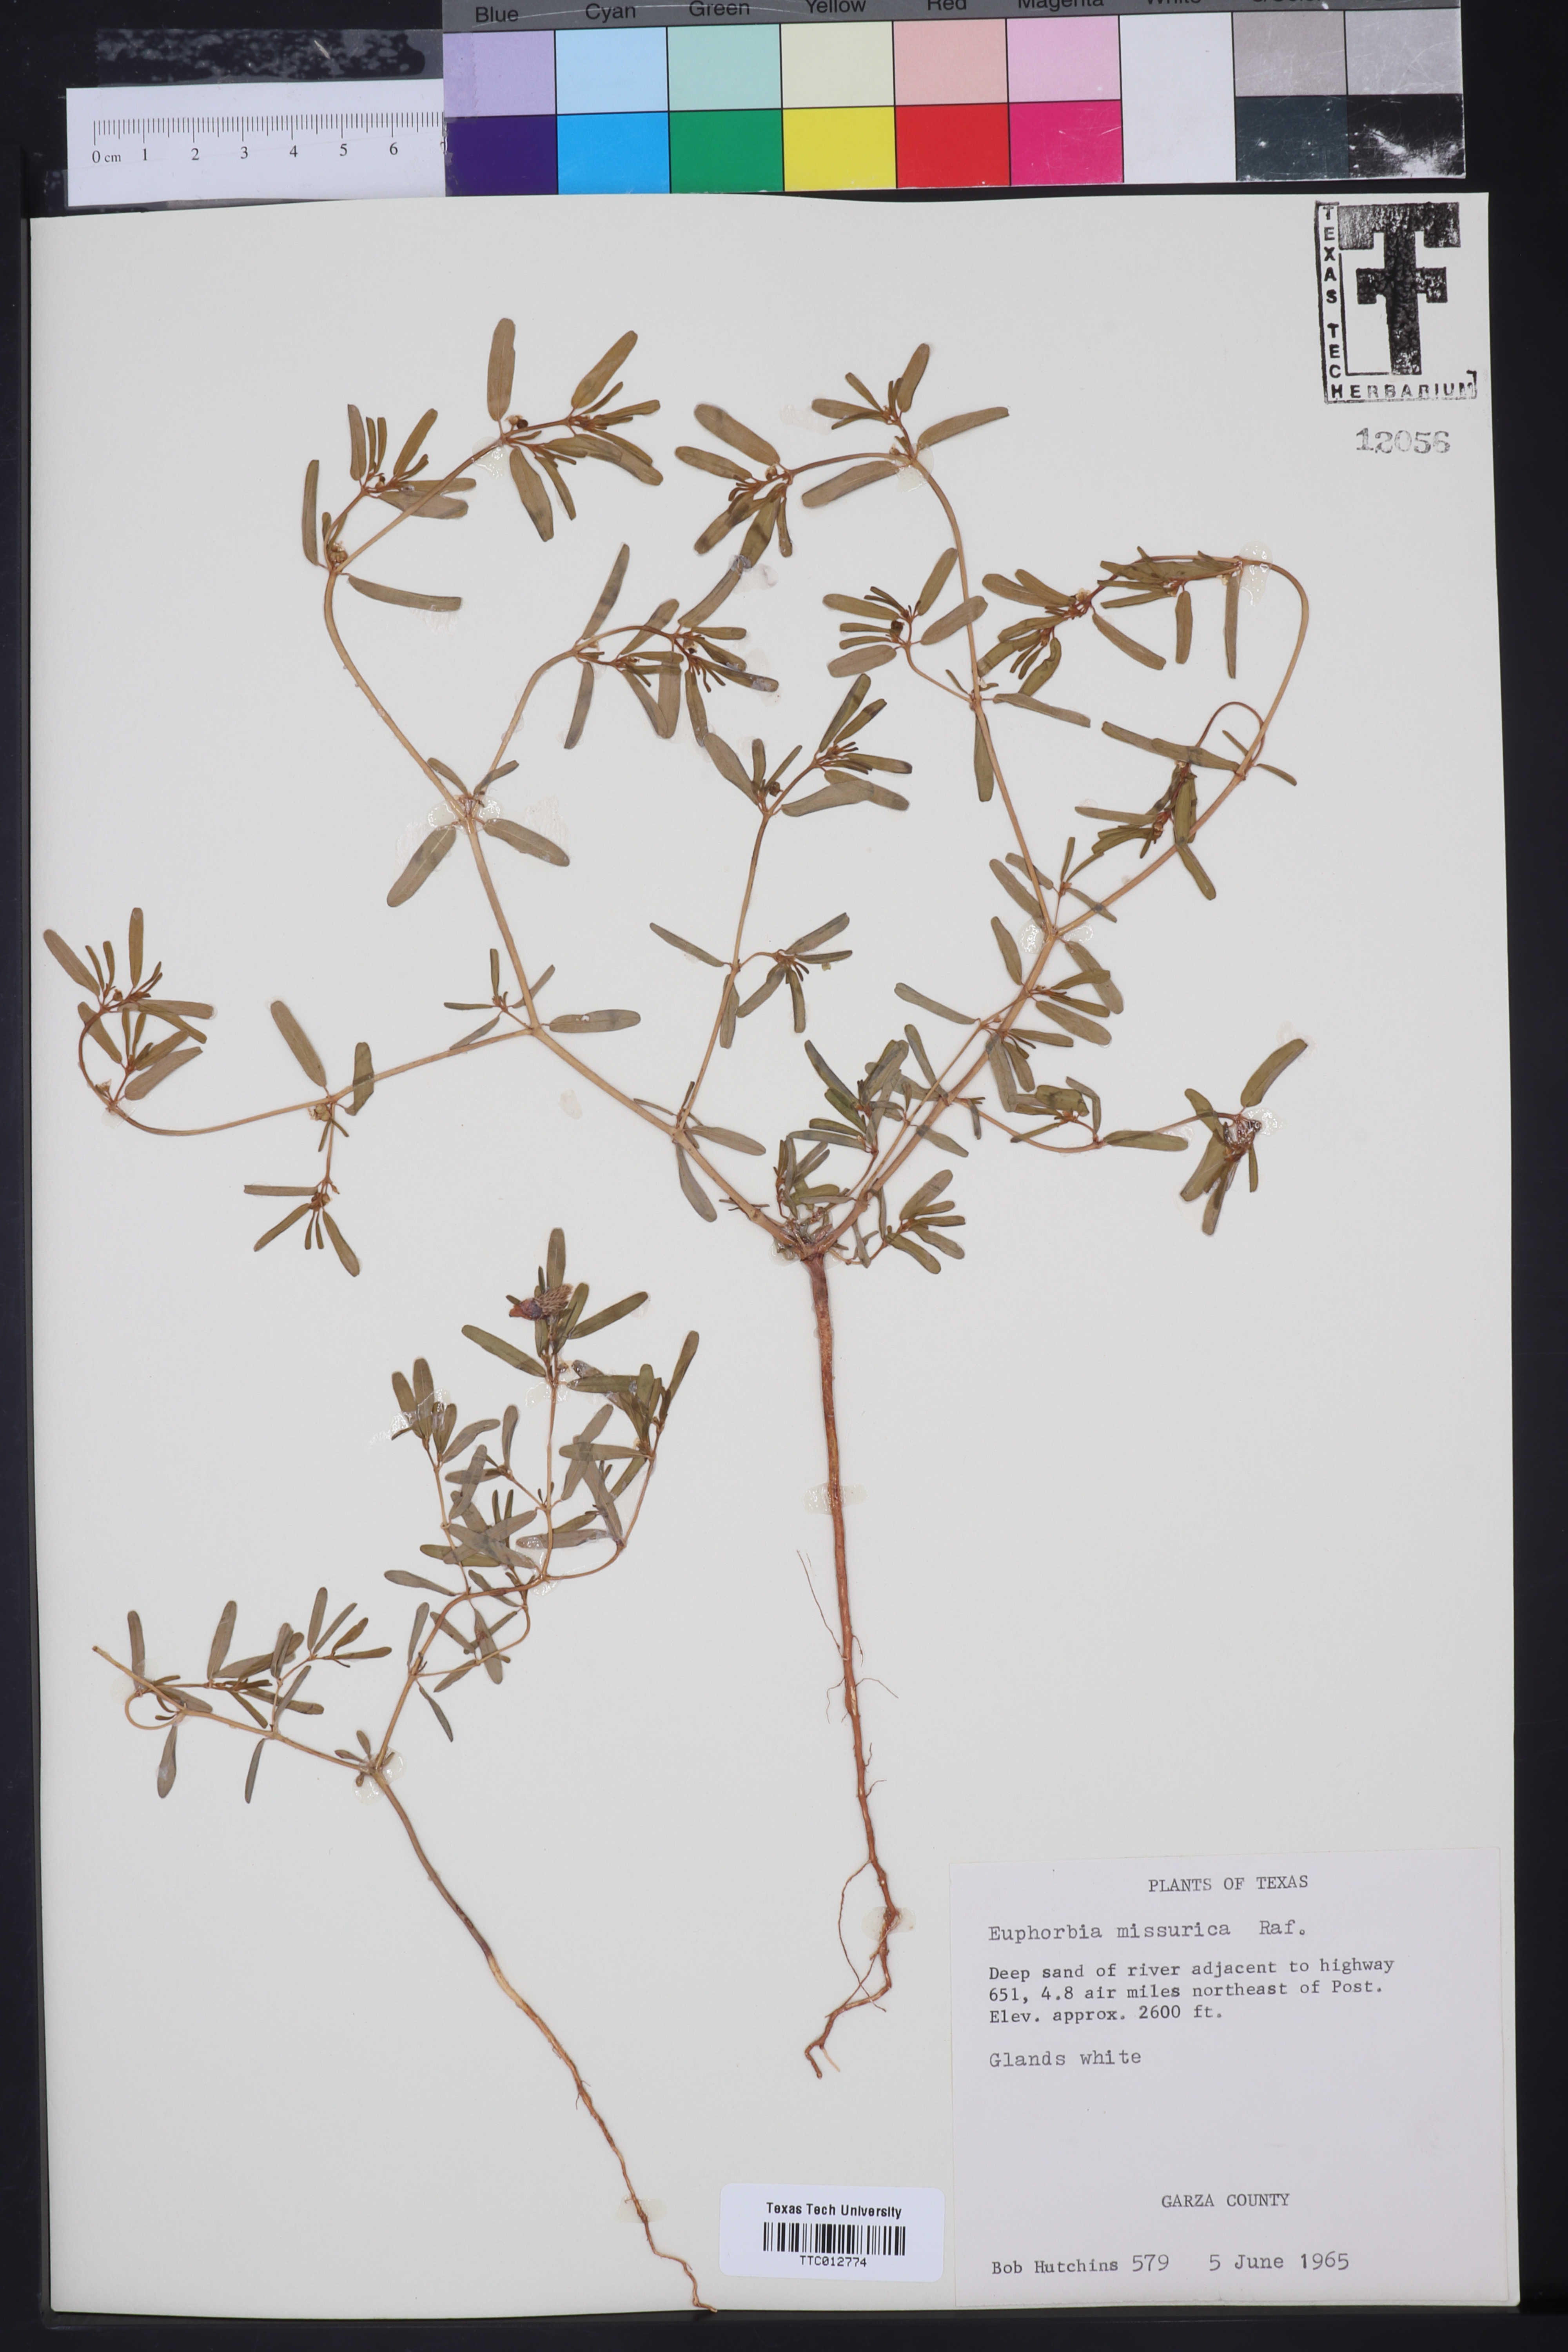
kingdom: Plantae
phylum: Tracheophyta
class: Magnoliopsida
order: Malpighiales
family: Euphorbiaceae
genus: Euphorbia
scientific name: Euphorbia missurica
